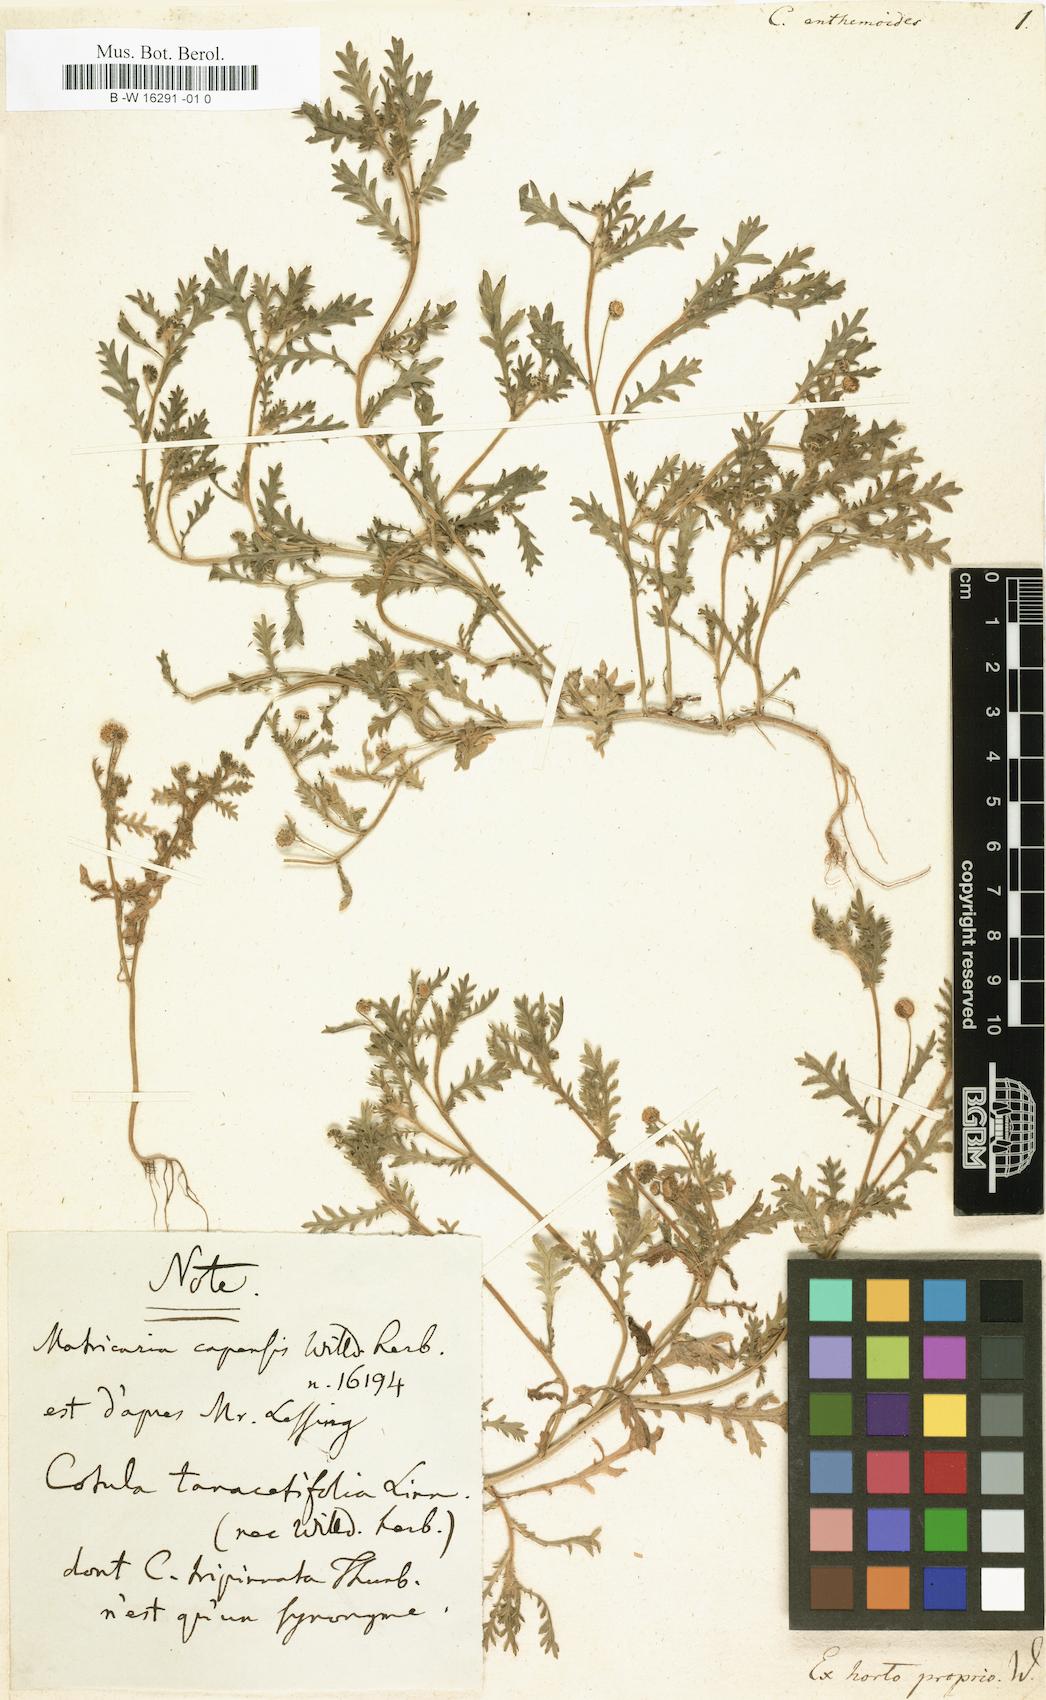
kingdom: Plantae
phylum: Tracheophyta
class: Magnoliopsida
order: Asterales
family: Asteraceae
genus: Cotula
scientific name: Cotula anthemoides
